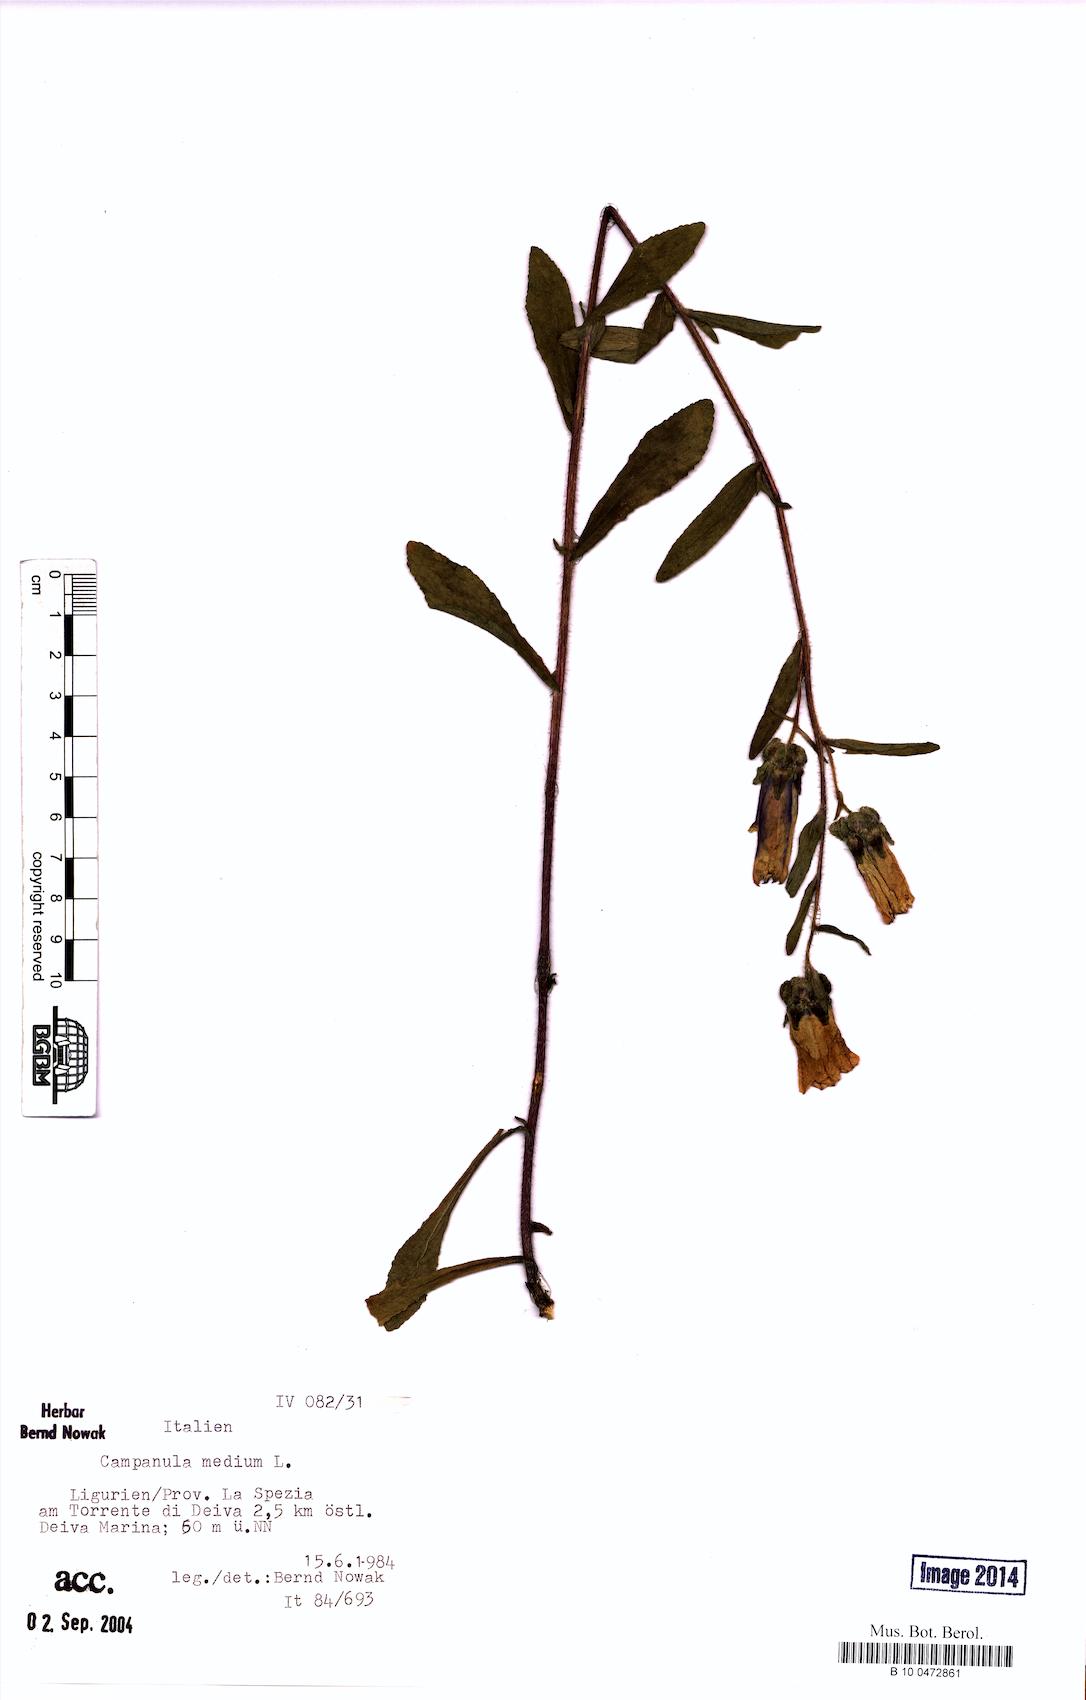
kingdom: Plantae
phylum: Tracheophyta
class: Magnoliopsida
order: Asterales
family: Campanulaceae
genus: Campanula
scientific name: Campanula medium
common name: Canterbury bells
